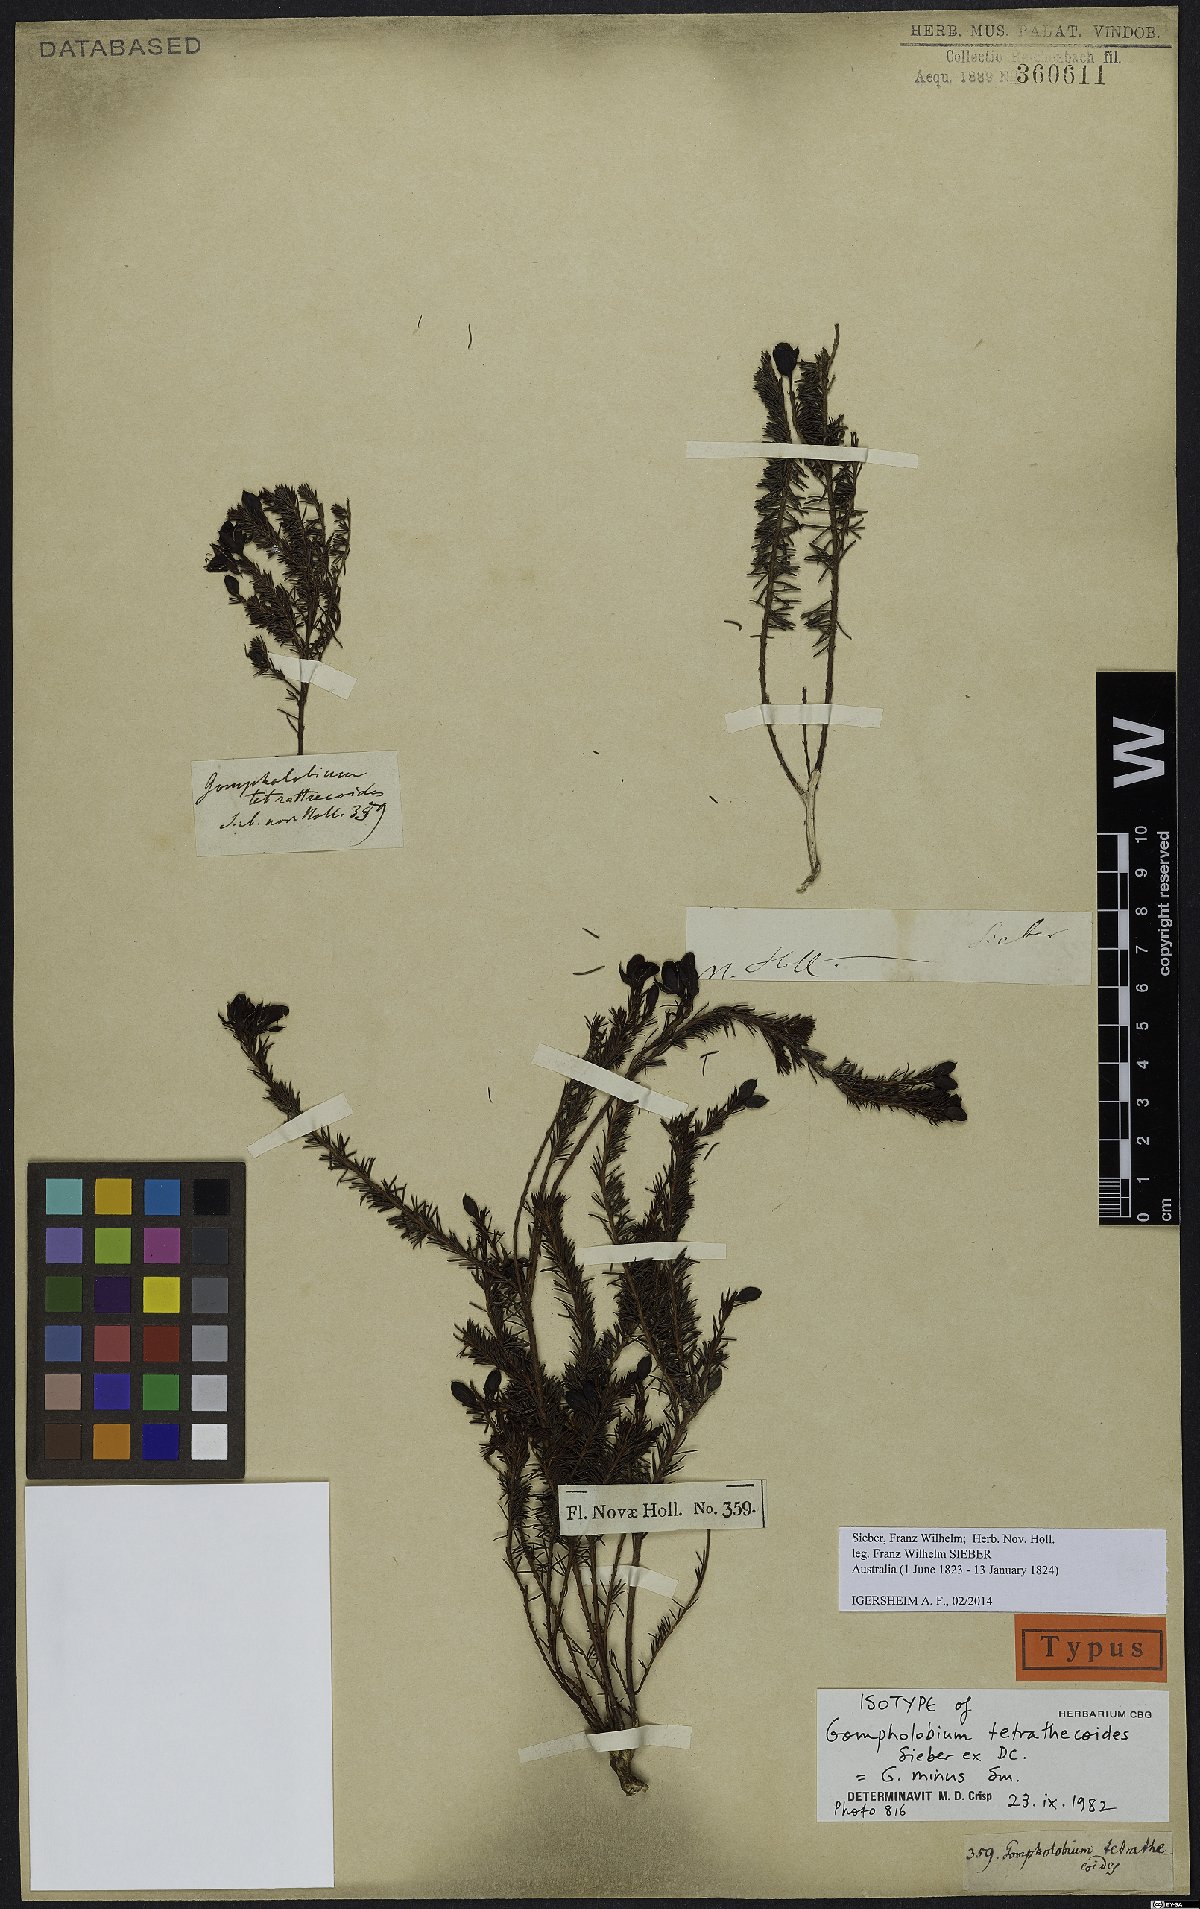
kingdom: Plantae
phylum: Tracheophyta
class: Magnoliopsida
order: Fabales
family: Fabaceae
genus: Gompholobium
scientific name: Gompholobium minus
